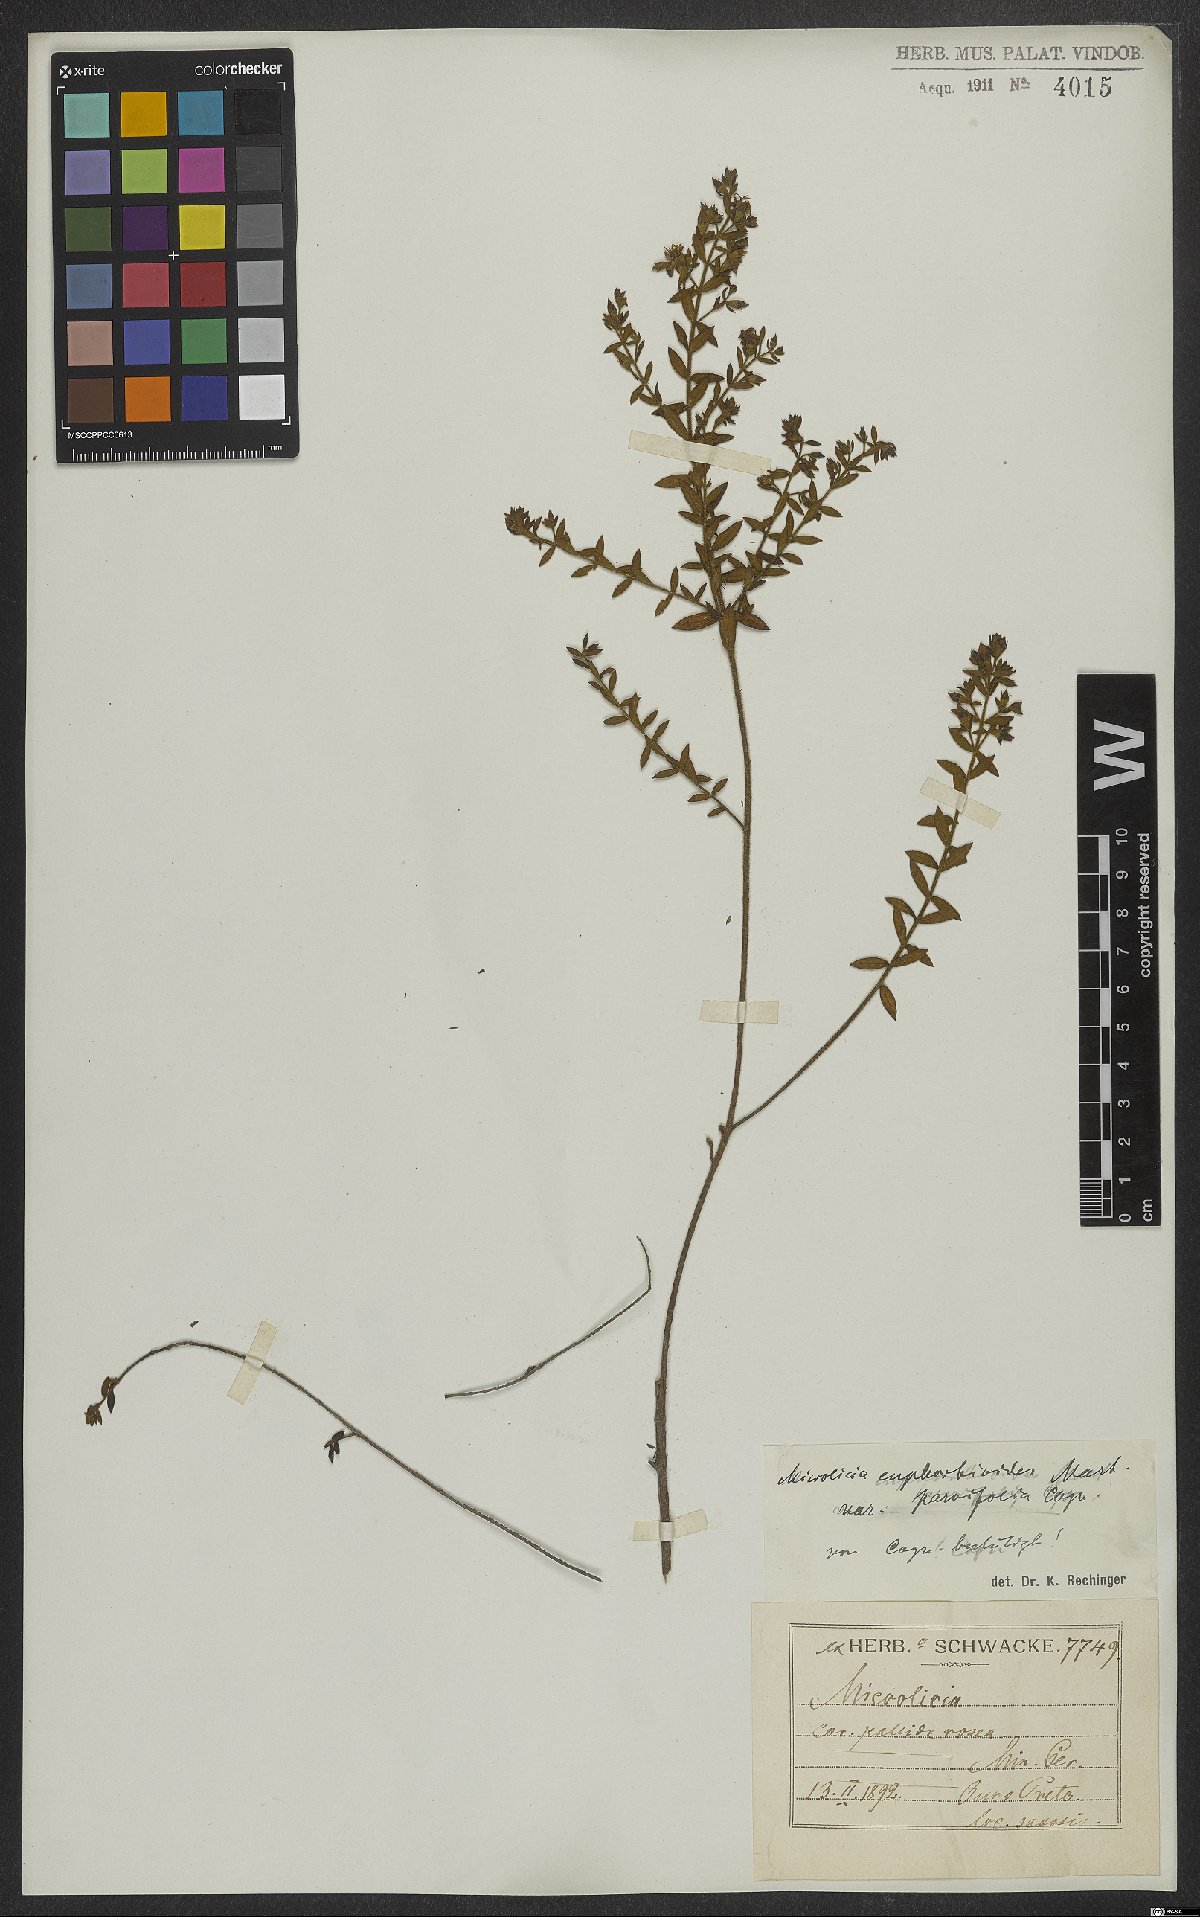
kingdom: Plantae
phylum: Tracheophyta
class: Magnoliopsida
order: Myrtales
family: Melastomataceae
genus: Microlicia
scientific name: Microlicia euphorbioides
